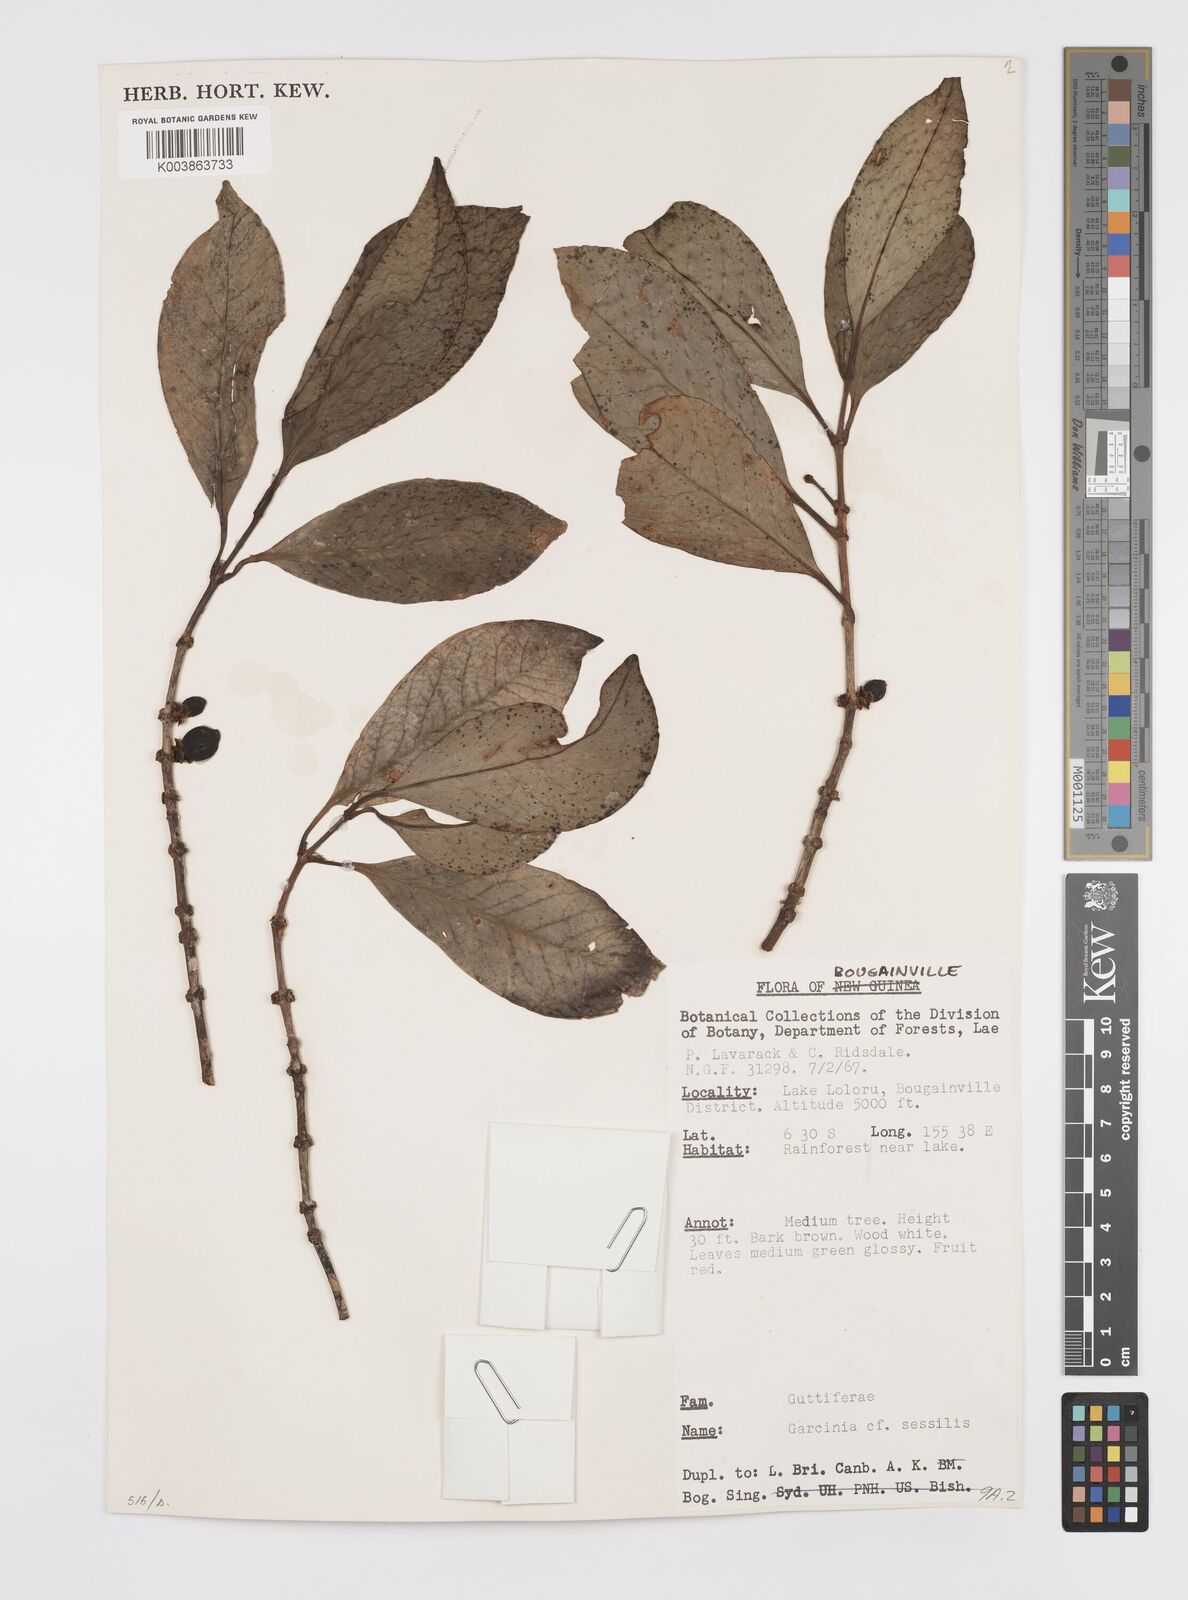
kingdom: Plantae
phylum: Tracheophyta
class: Magnoliopsida
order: Malpighiales
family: Clusiaceae
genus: Garcinia
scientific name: Garcinia sessilis
